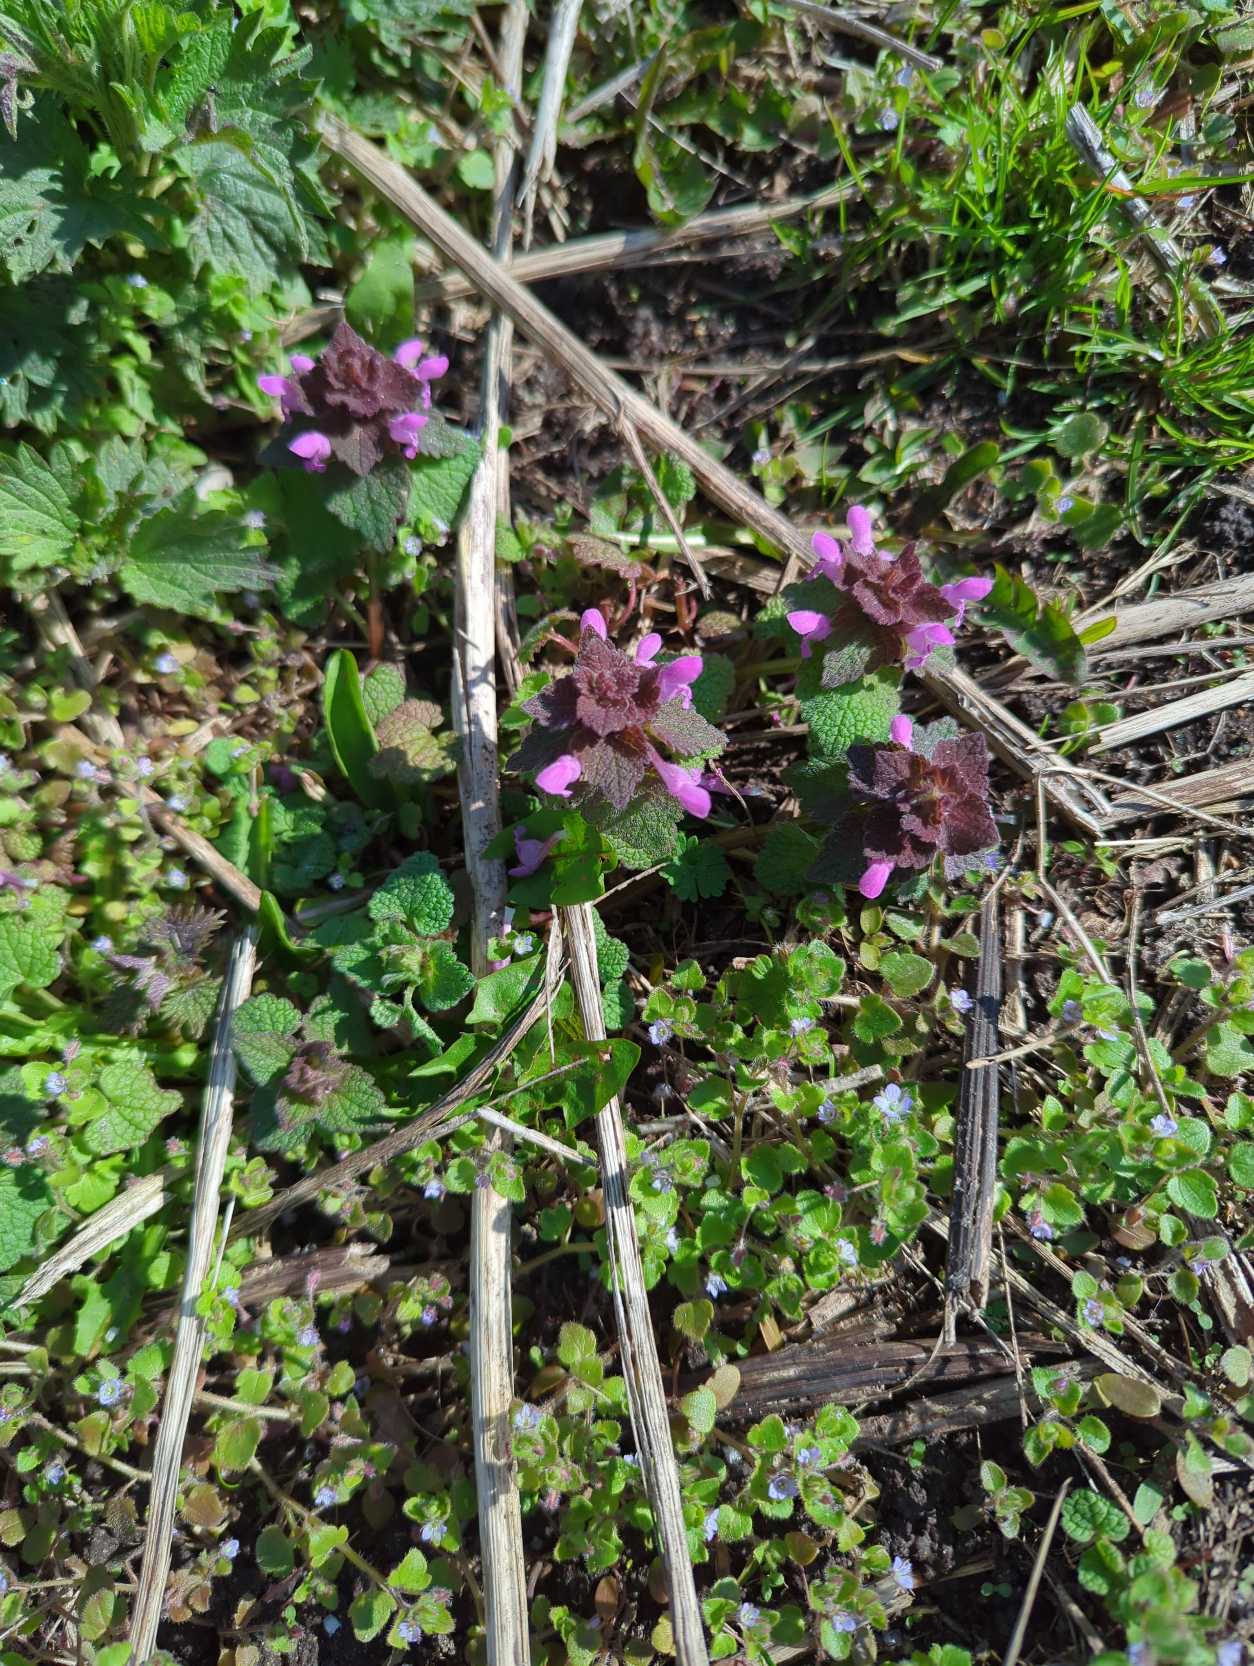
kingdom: Plantae
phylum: Tracheophyta
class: Magnoliopsida
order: Lamiales
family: Lamiaceae
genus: Lamium
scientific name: Lamium purpureum
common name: Rød tvetand
